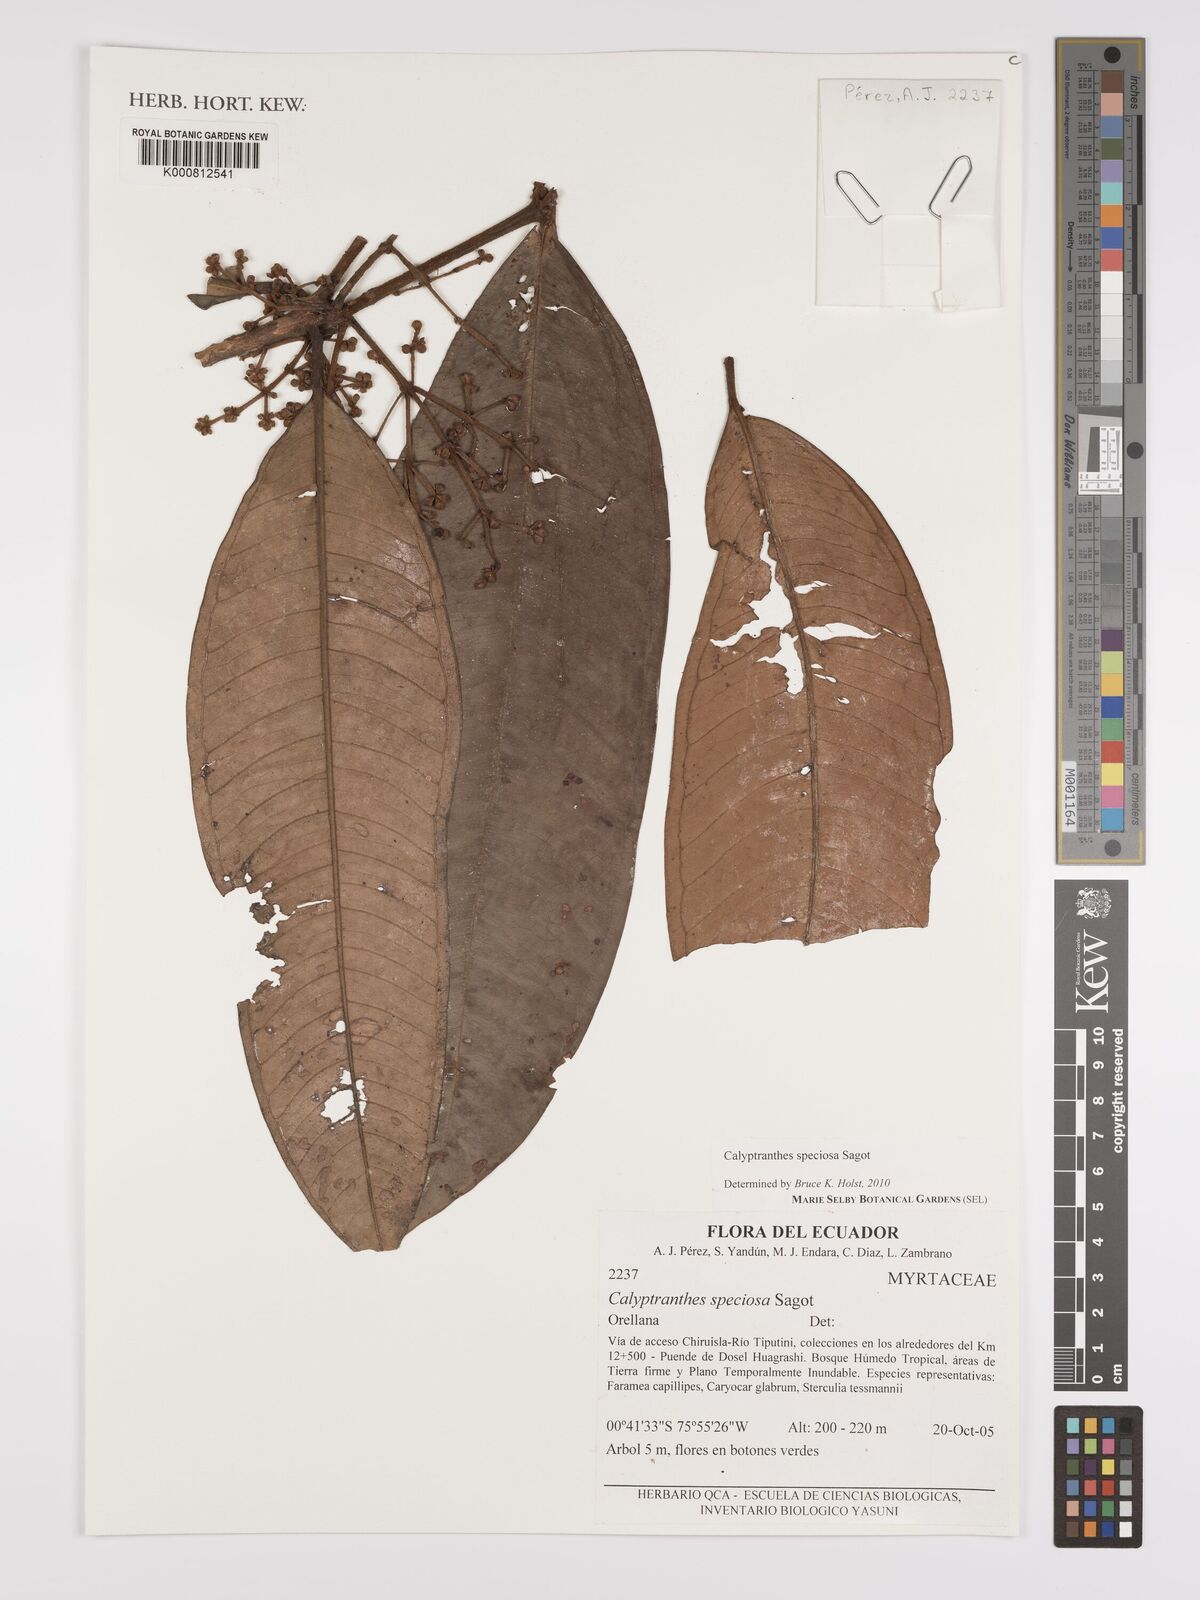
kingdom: Plantae
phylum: Tracheophyta
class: Magnoliopsida
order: Myrtales
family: Myrtaceae
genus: Myrcia
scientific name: Myrcia neospeciosa
